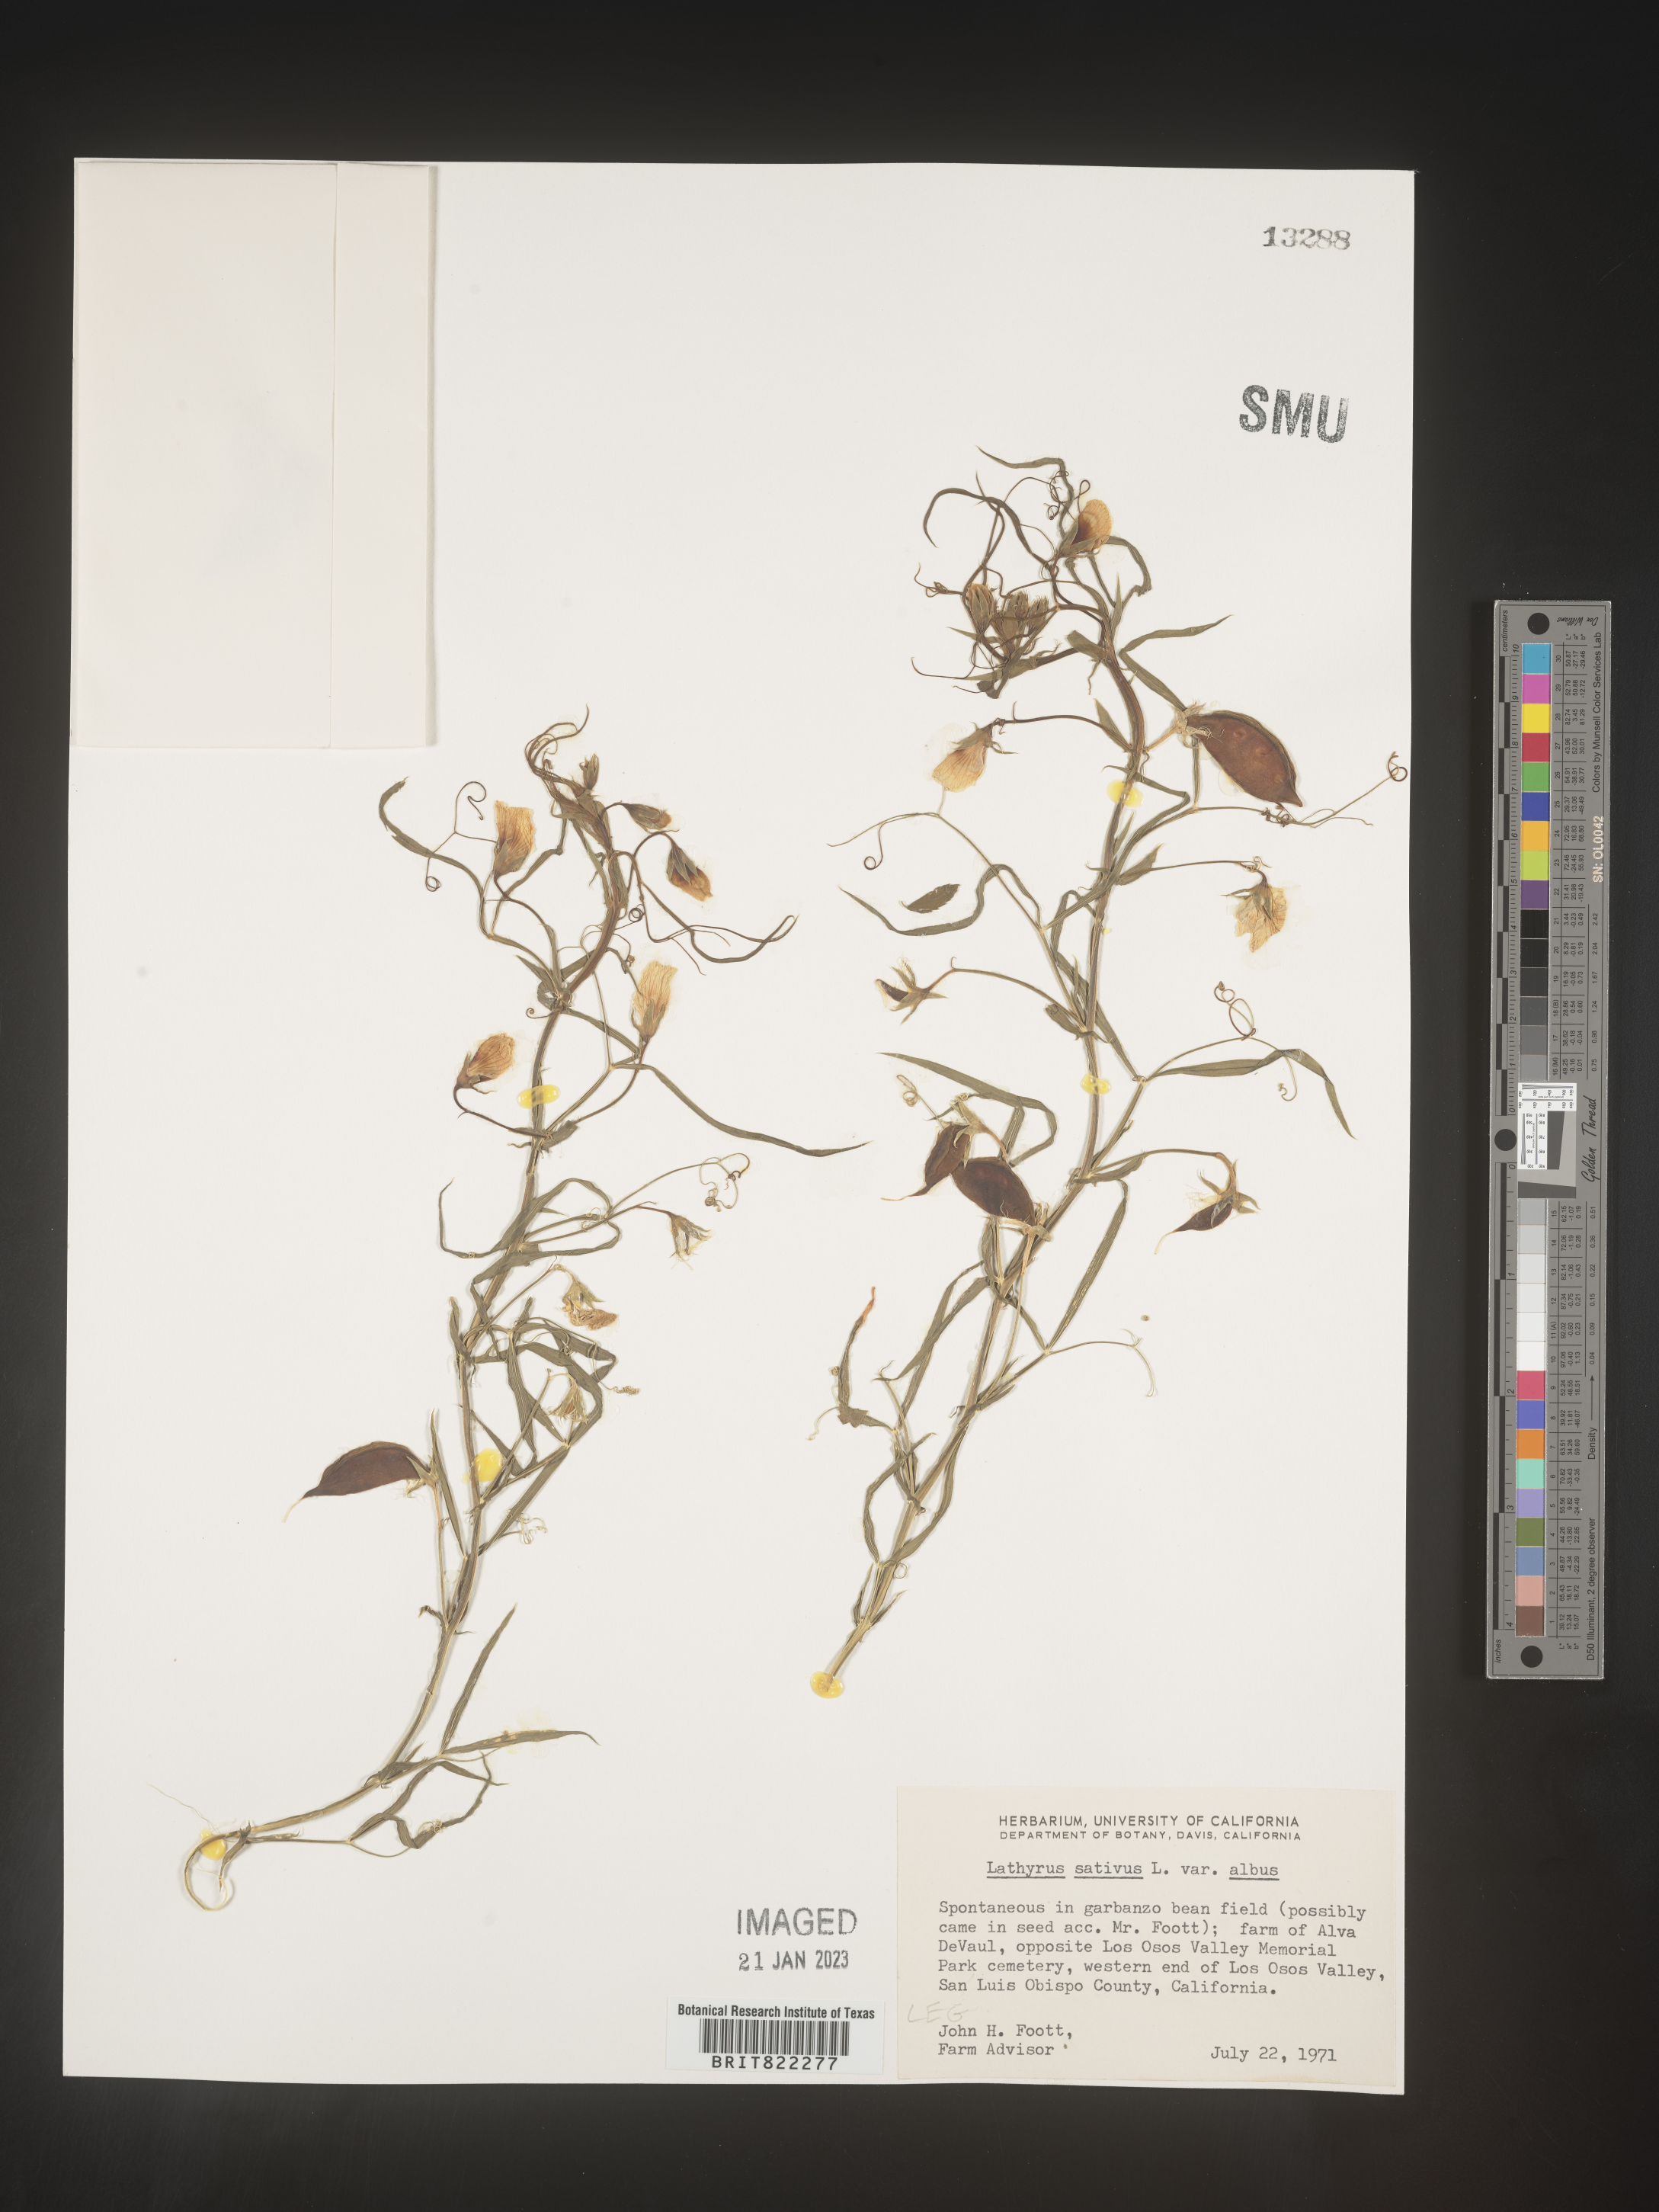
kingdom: Plantae
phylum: Tracheophyta
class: Magnoliopsida
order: Fabales
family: Fabaceae
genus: Lathyrus
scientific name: Lathyrus
